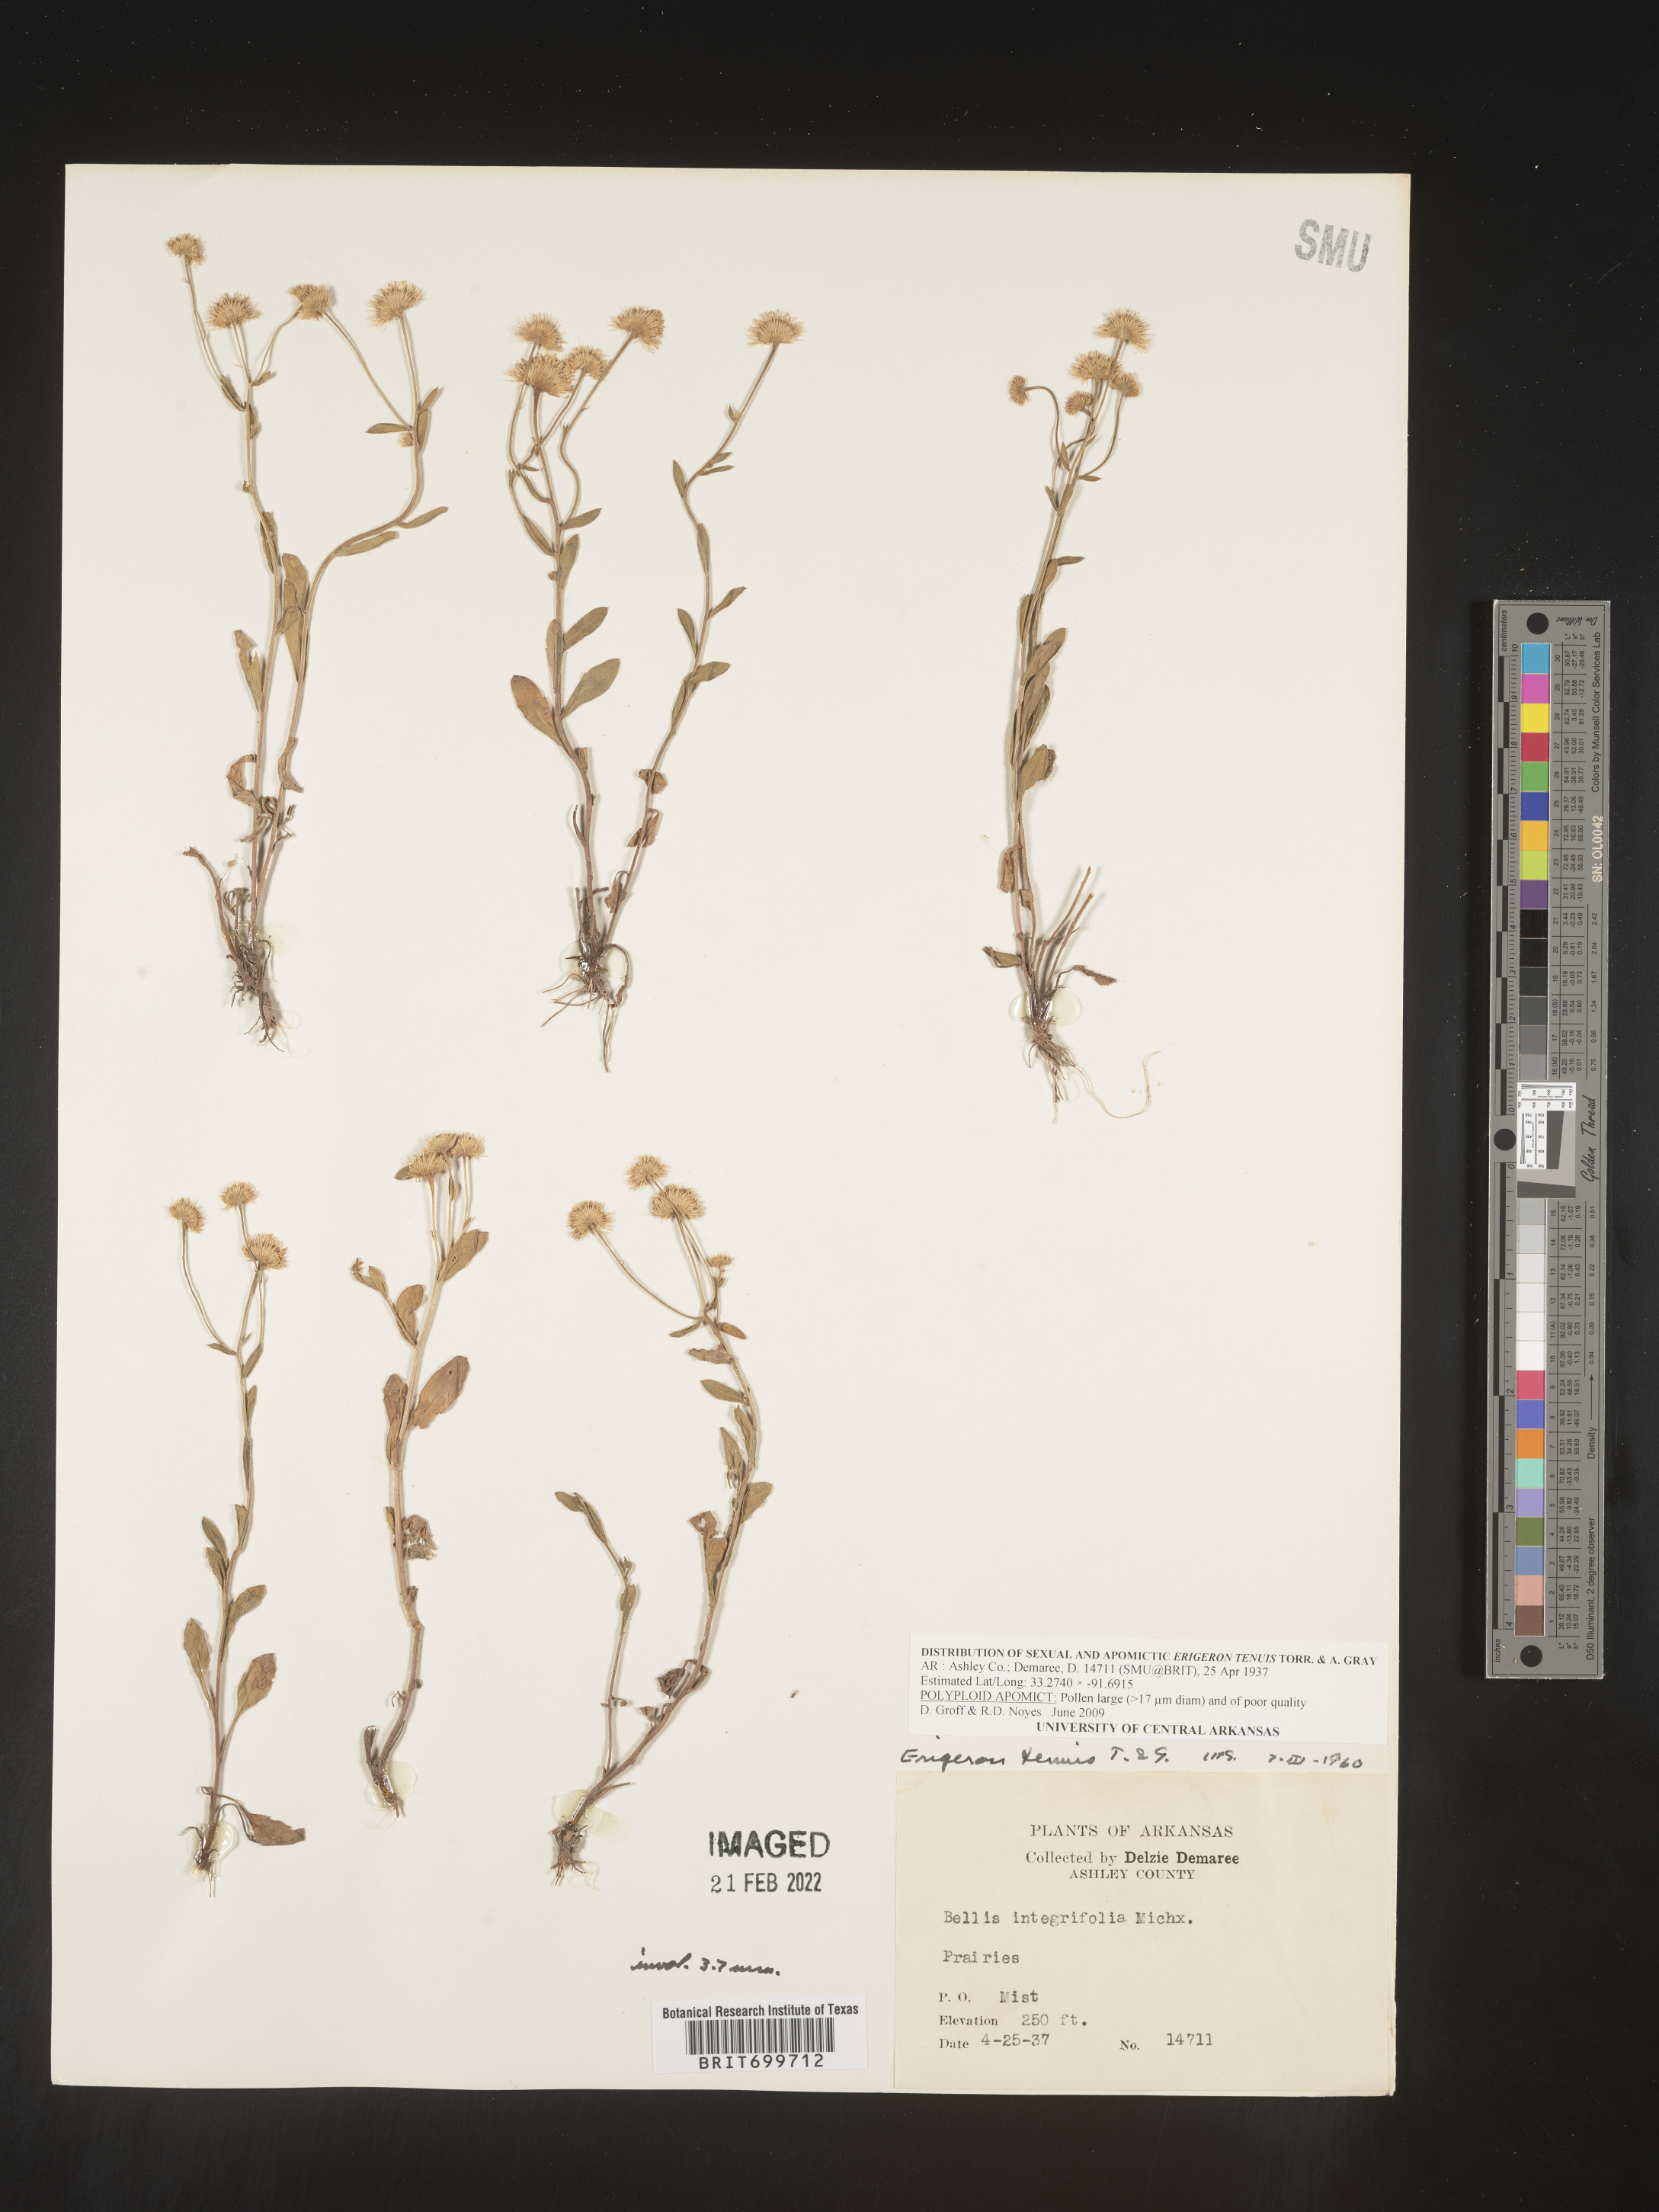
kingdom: Plantae
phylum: Tracheophyta
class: Magnoliopsida
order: Asterales
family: Asteraceae
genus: Erigeron
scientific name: Erigeron tenuis
